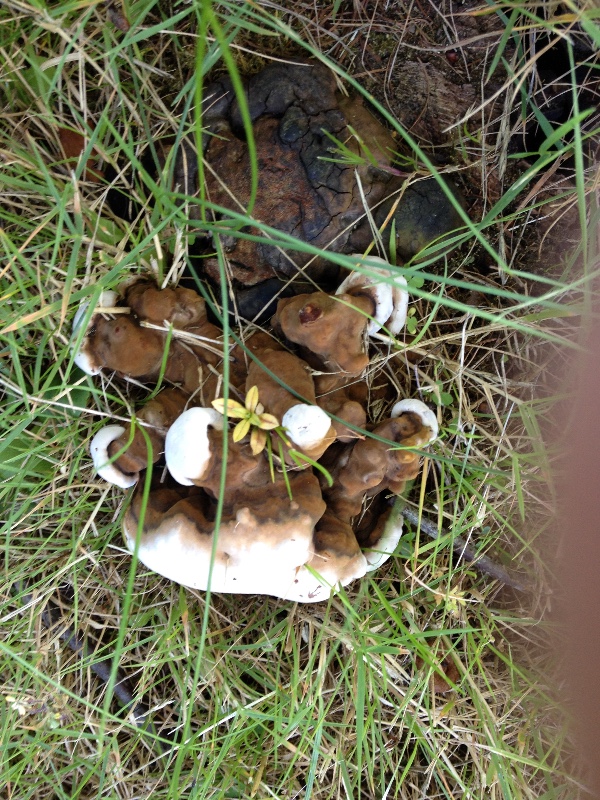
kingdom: Fungi
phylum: Basidiomycota
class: Agaricomycetes
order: Polyporales
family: Polyporaceae
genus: Ganoderma
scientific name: Ganoderma
